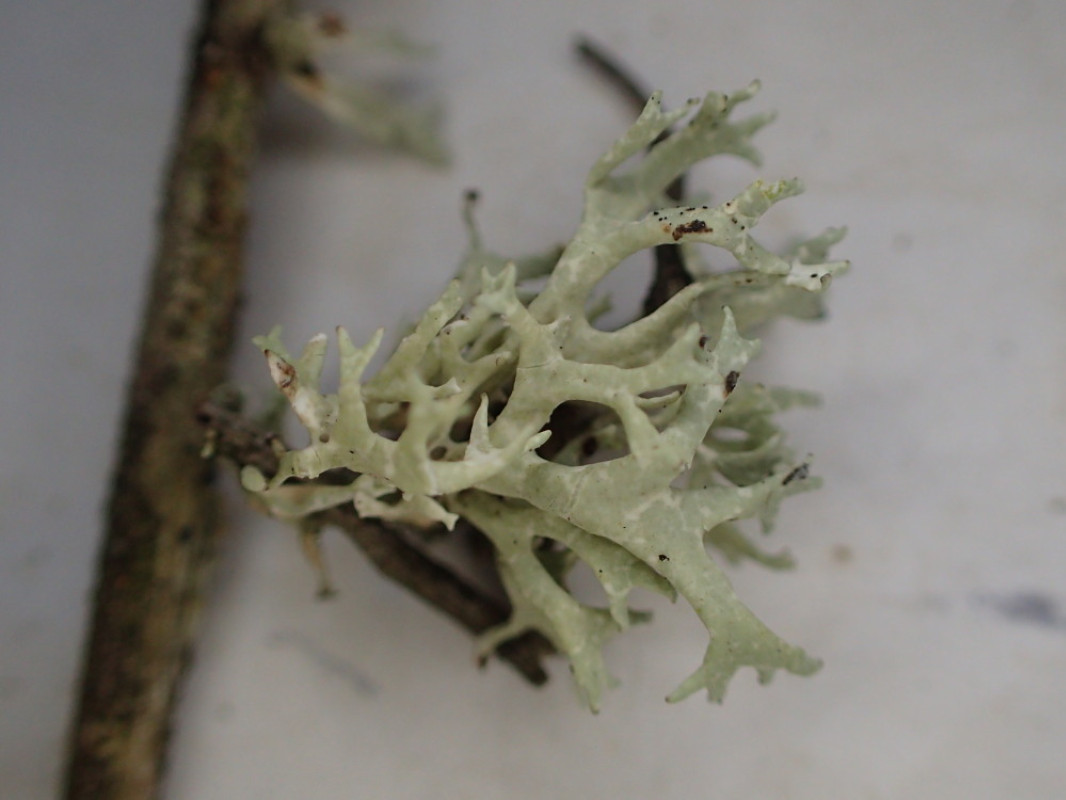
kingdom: Fungi
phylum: Ascomycota
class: Lecanoromycetes
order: Lecanorales
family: Parmeliaceae
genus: Evernia
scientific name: Evernia prunastri
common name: almindelig slåenlav
